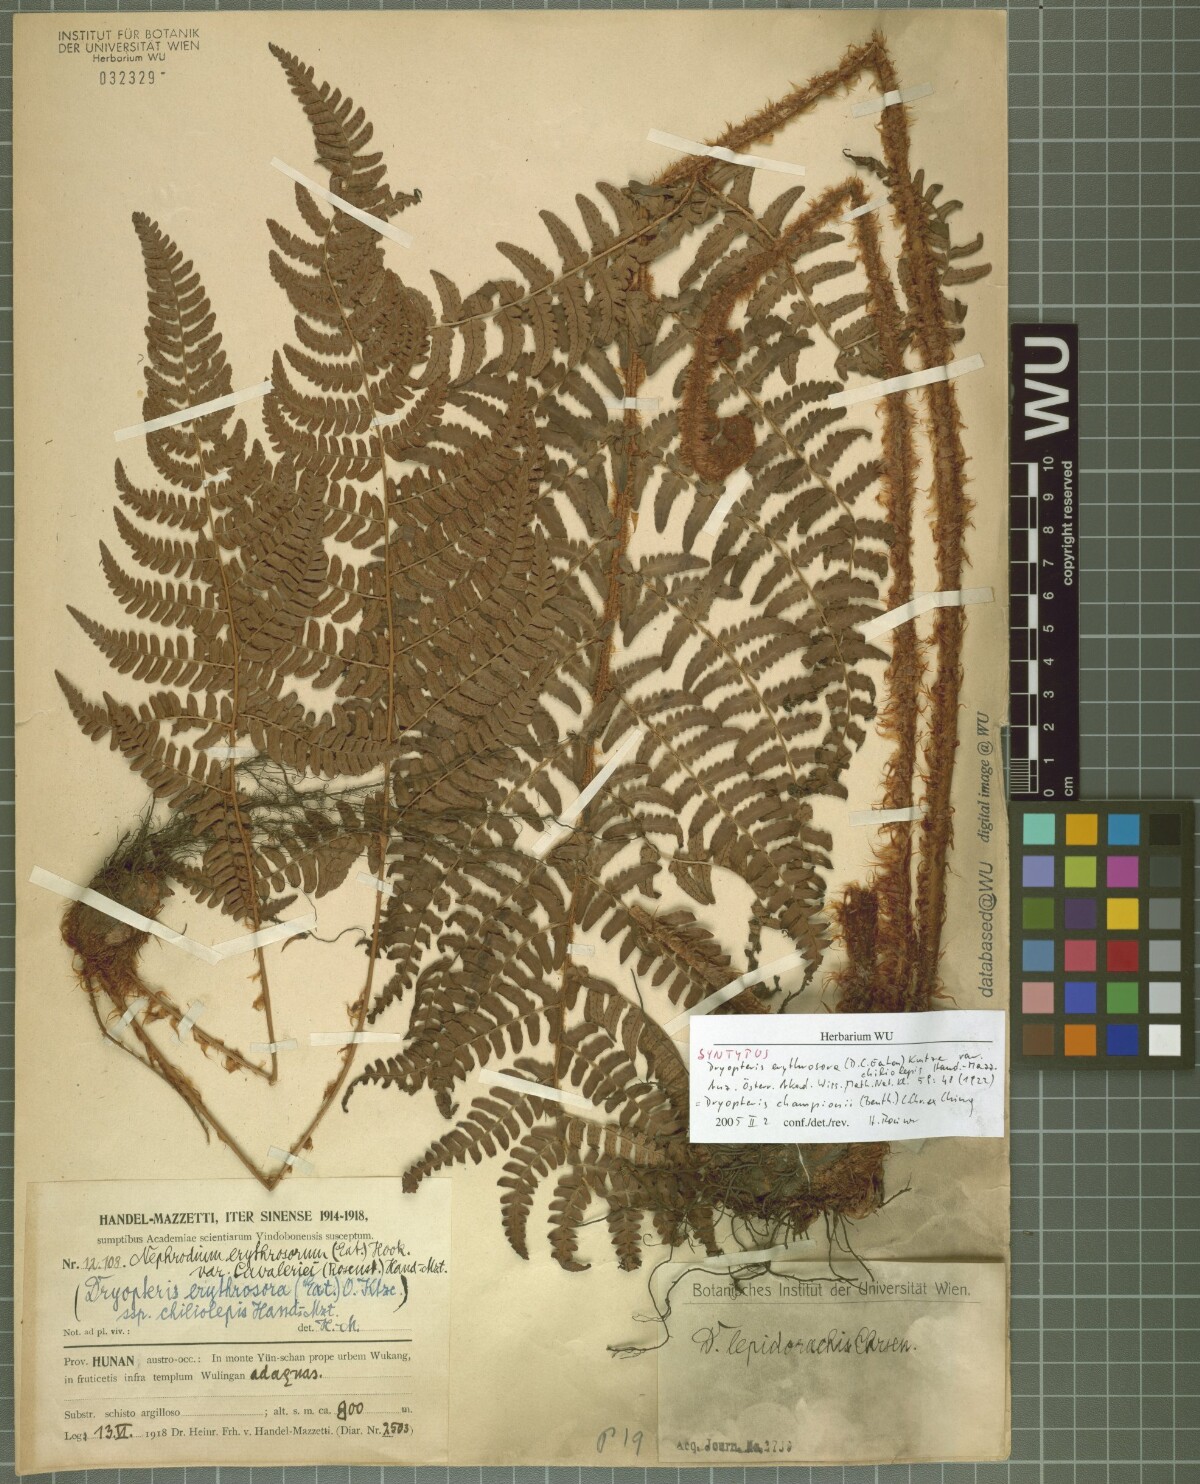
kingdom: Plantae
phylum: Tracheophyta
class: Polypodiopsida
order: Polypodiales
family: Dryopteridaceae
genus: Dryopteris
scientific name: Dryopteris championiae
